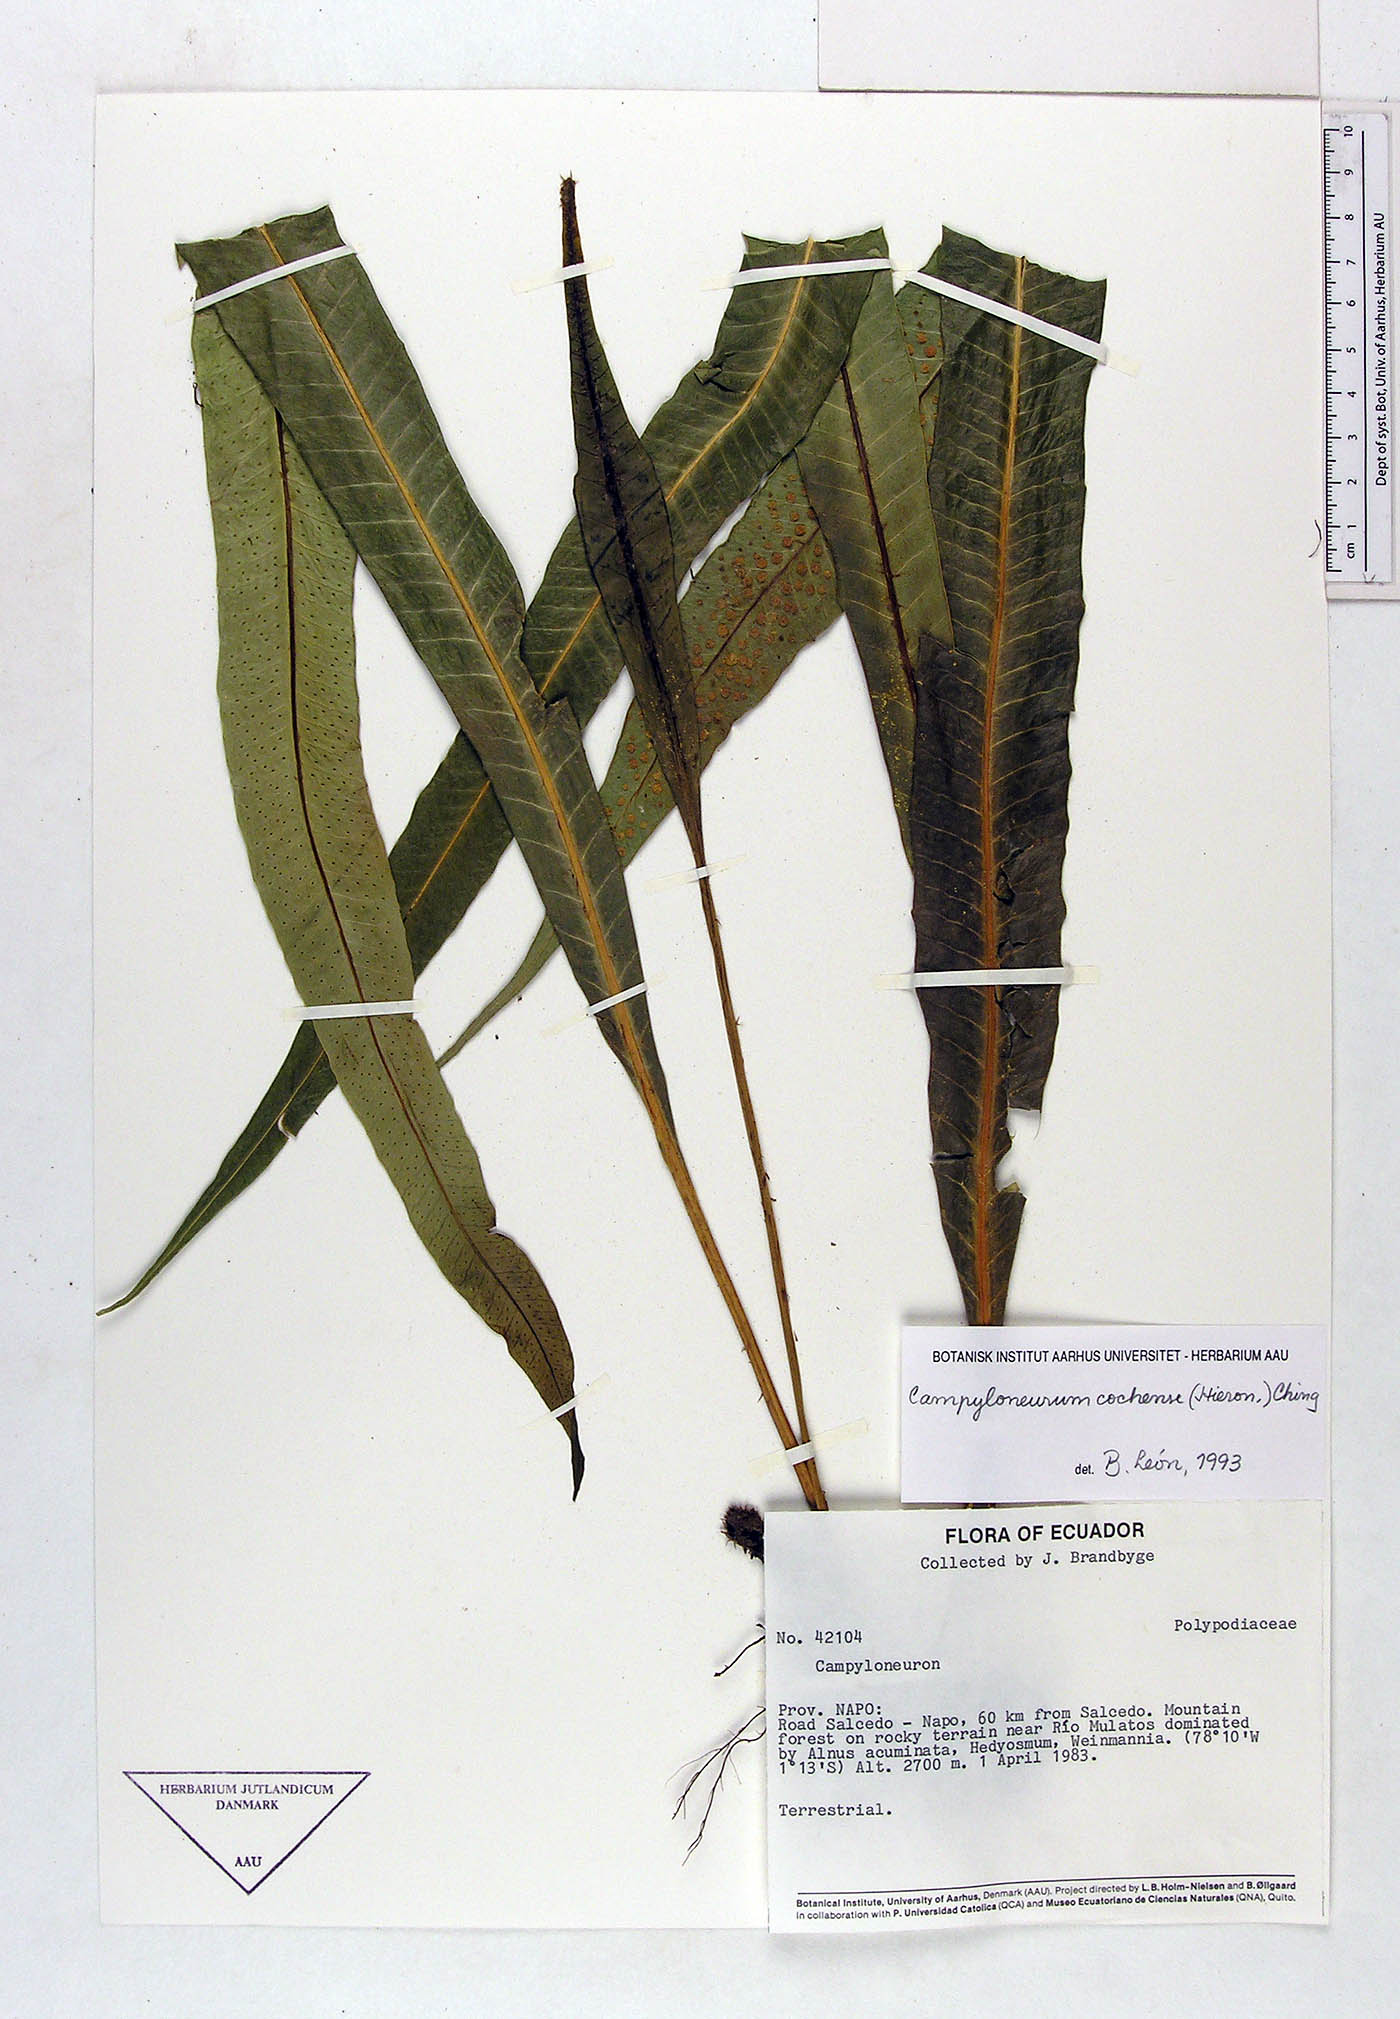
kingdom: Plantae
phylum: Tracheophyta
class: Polypodiopsida
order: Polypodiales
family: Polypodiaceae
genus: Campyloneurum
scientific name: Campyloneurum cochense
